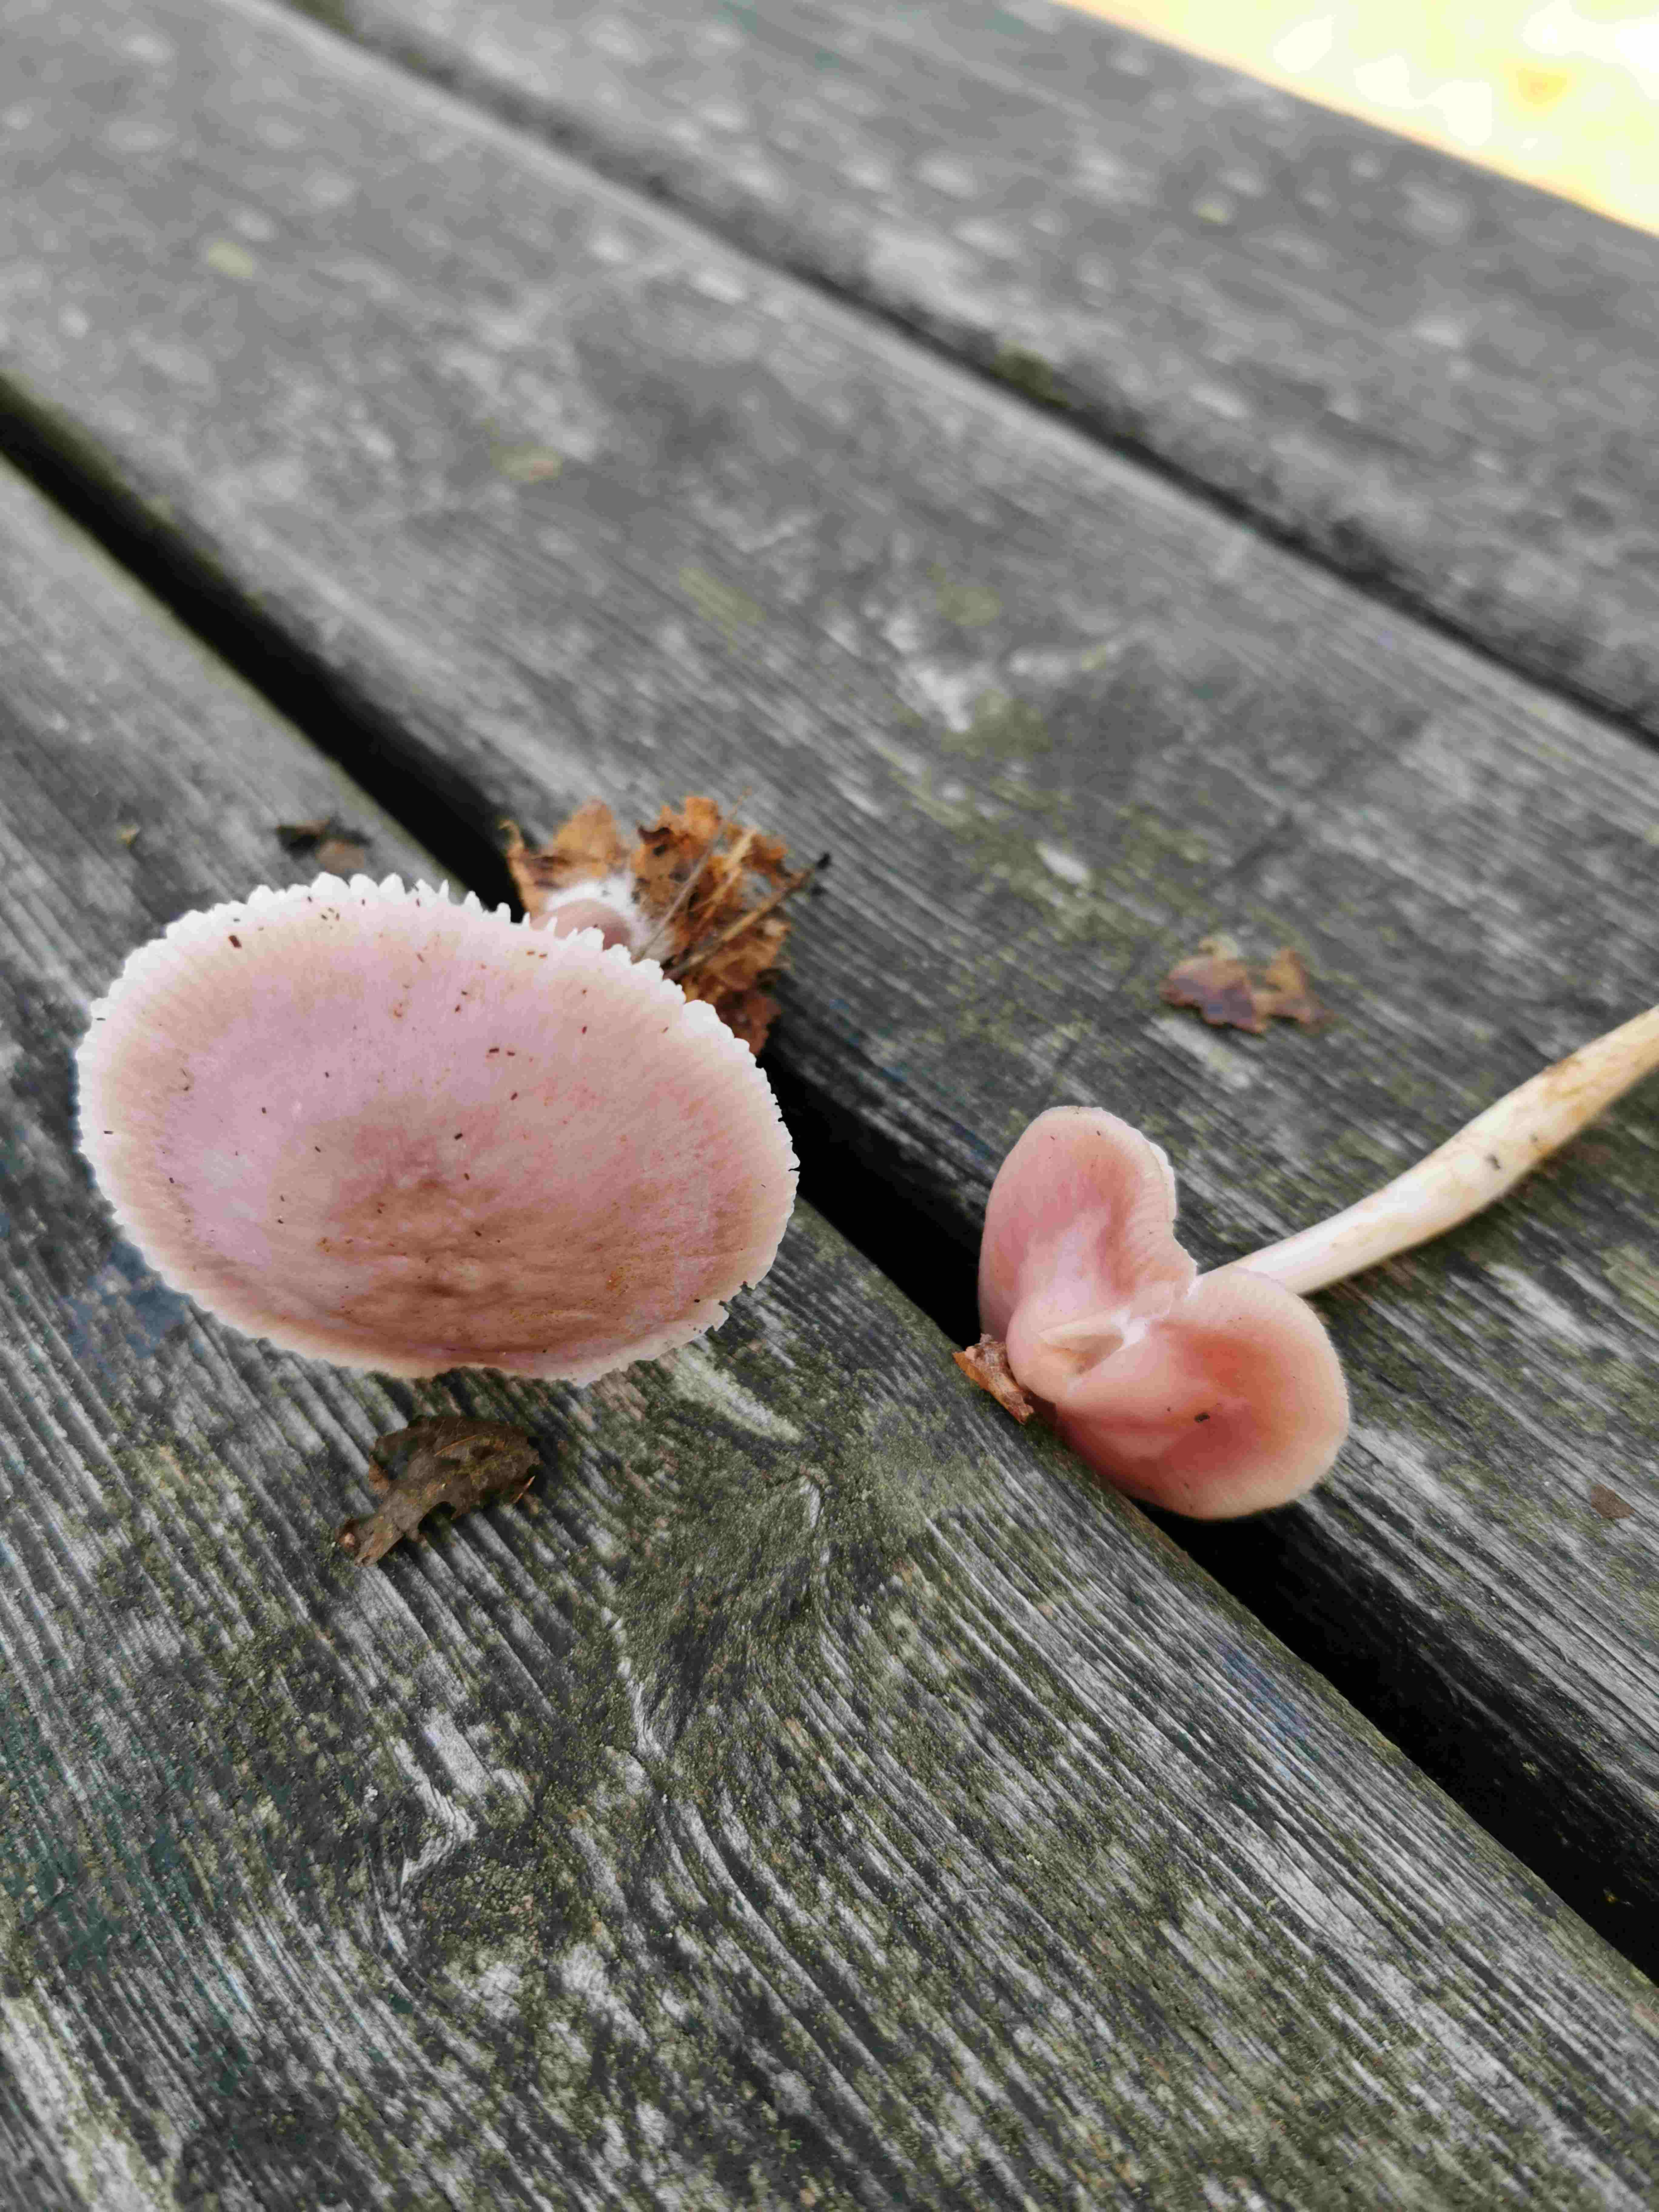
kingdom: Fungi
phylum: Basidiomycota
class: Agaricomycetes
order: Agaricales
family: Mycenaceae
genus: Mycena
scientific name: Mycena rosea
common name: rosa huesvamp
